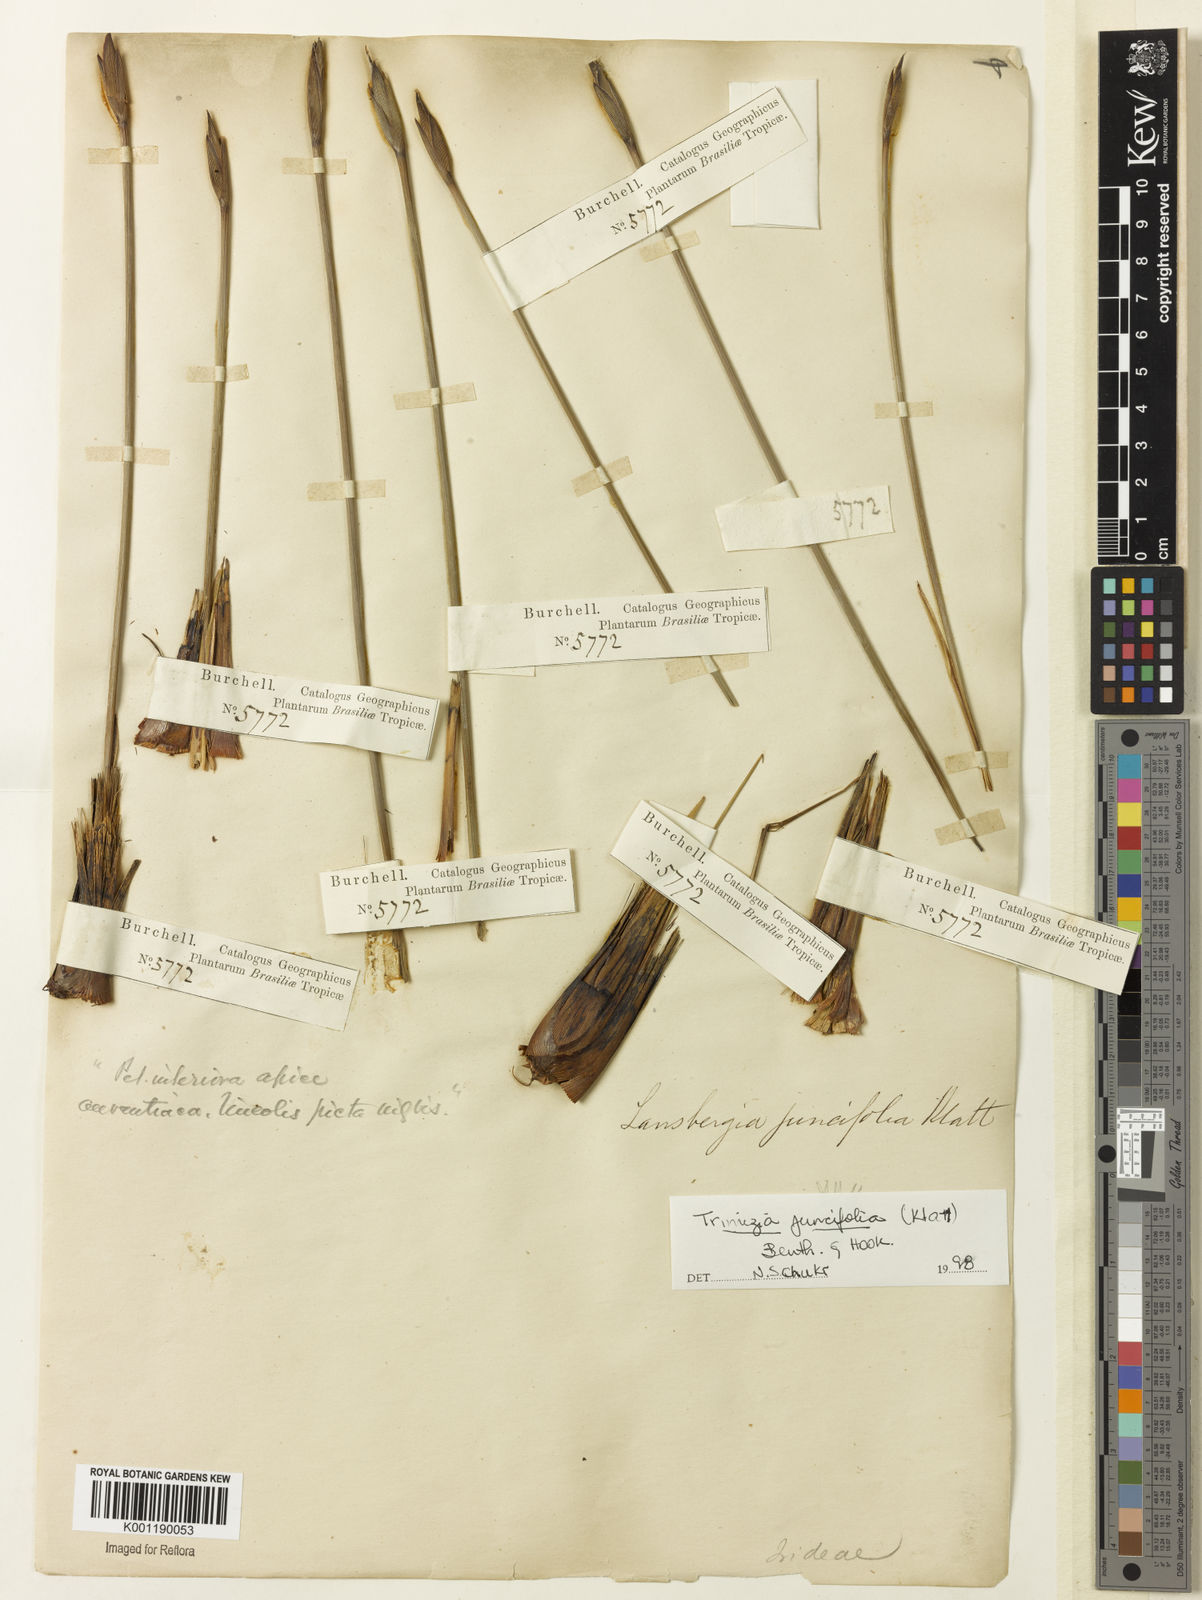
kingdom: Plantae
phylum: Tracheophyta
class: Liliopsida
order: Asparagales
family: Iridaceae
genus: Trimezia
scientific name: Trimezia juncifolia
